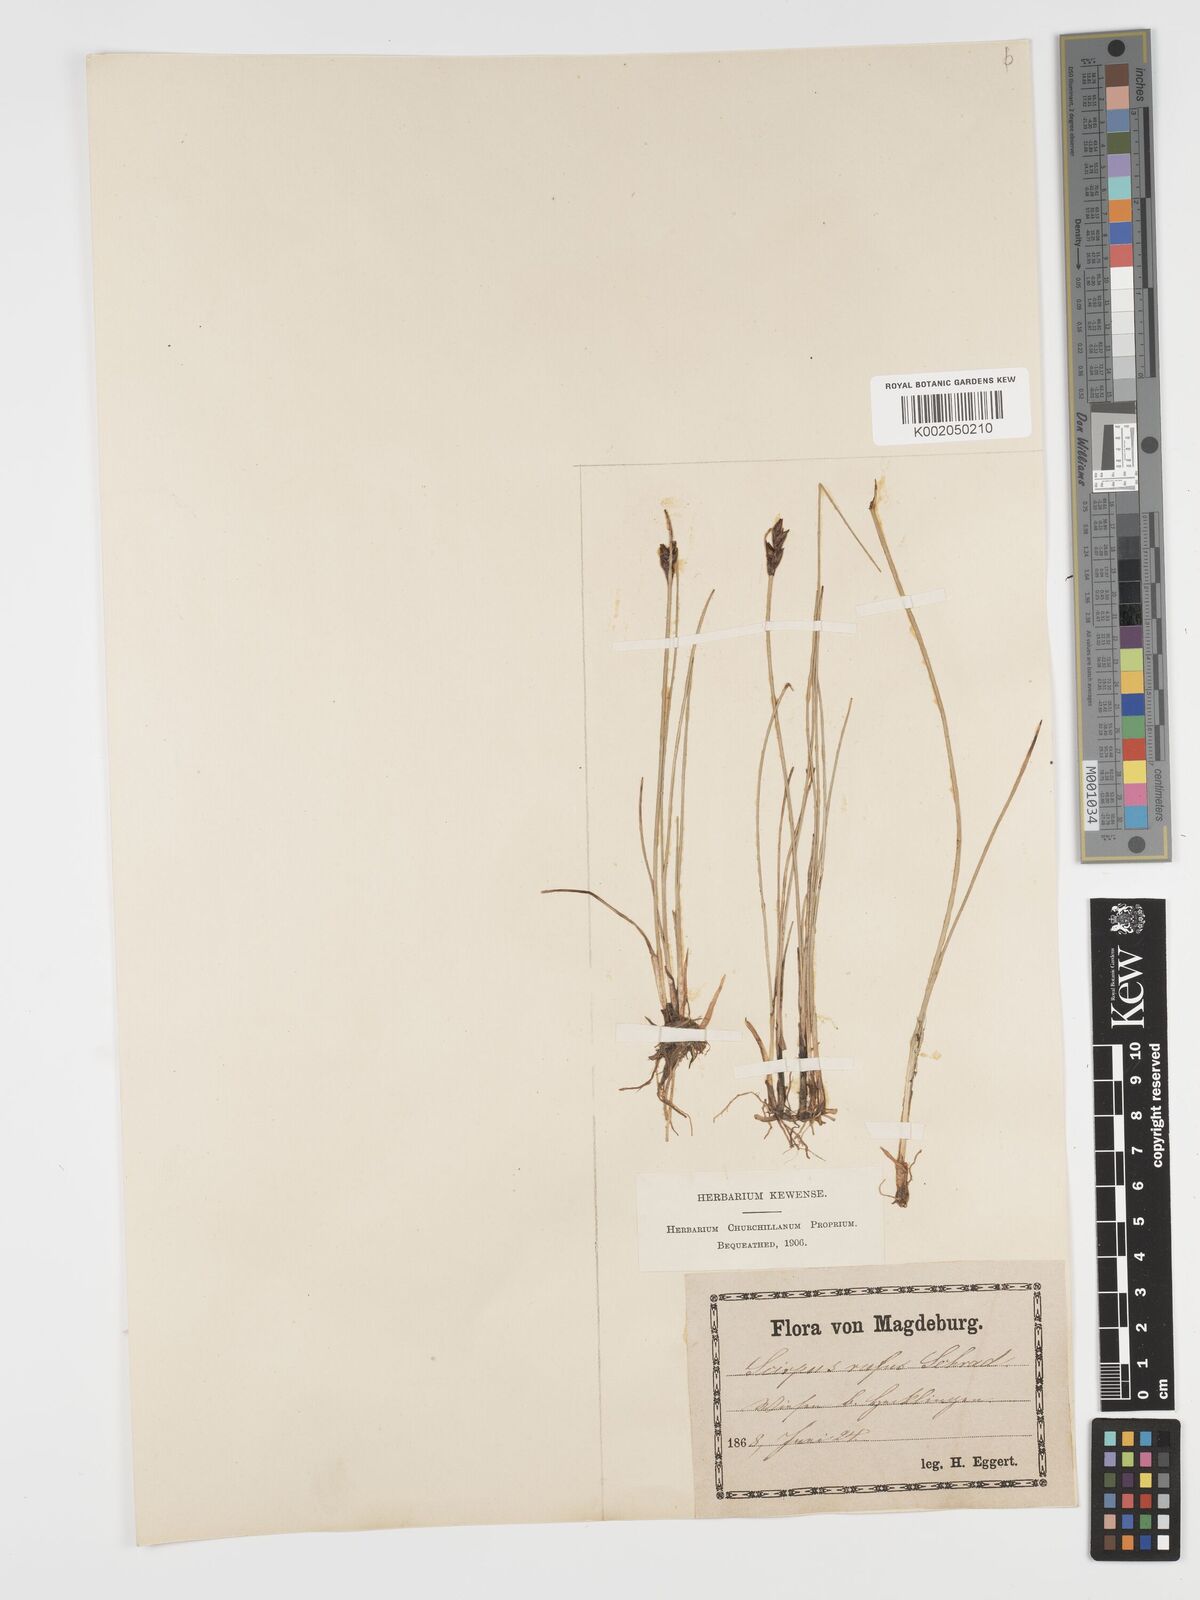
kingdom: Plantae
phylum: Tracheophyta
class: Liliopsida
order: Poales
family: Cyperaceae
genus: Blysmus
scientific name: Blysmus rufus
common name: Saltmarsh flat-sedge
